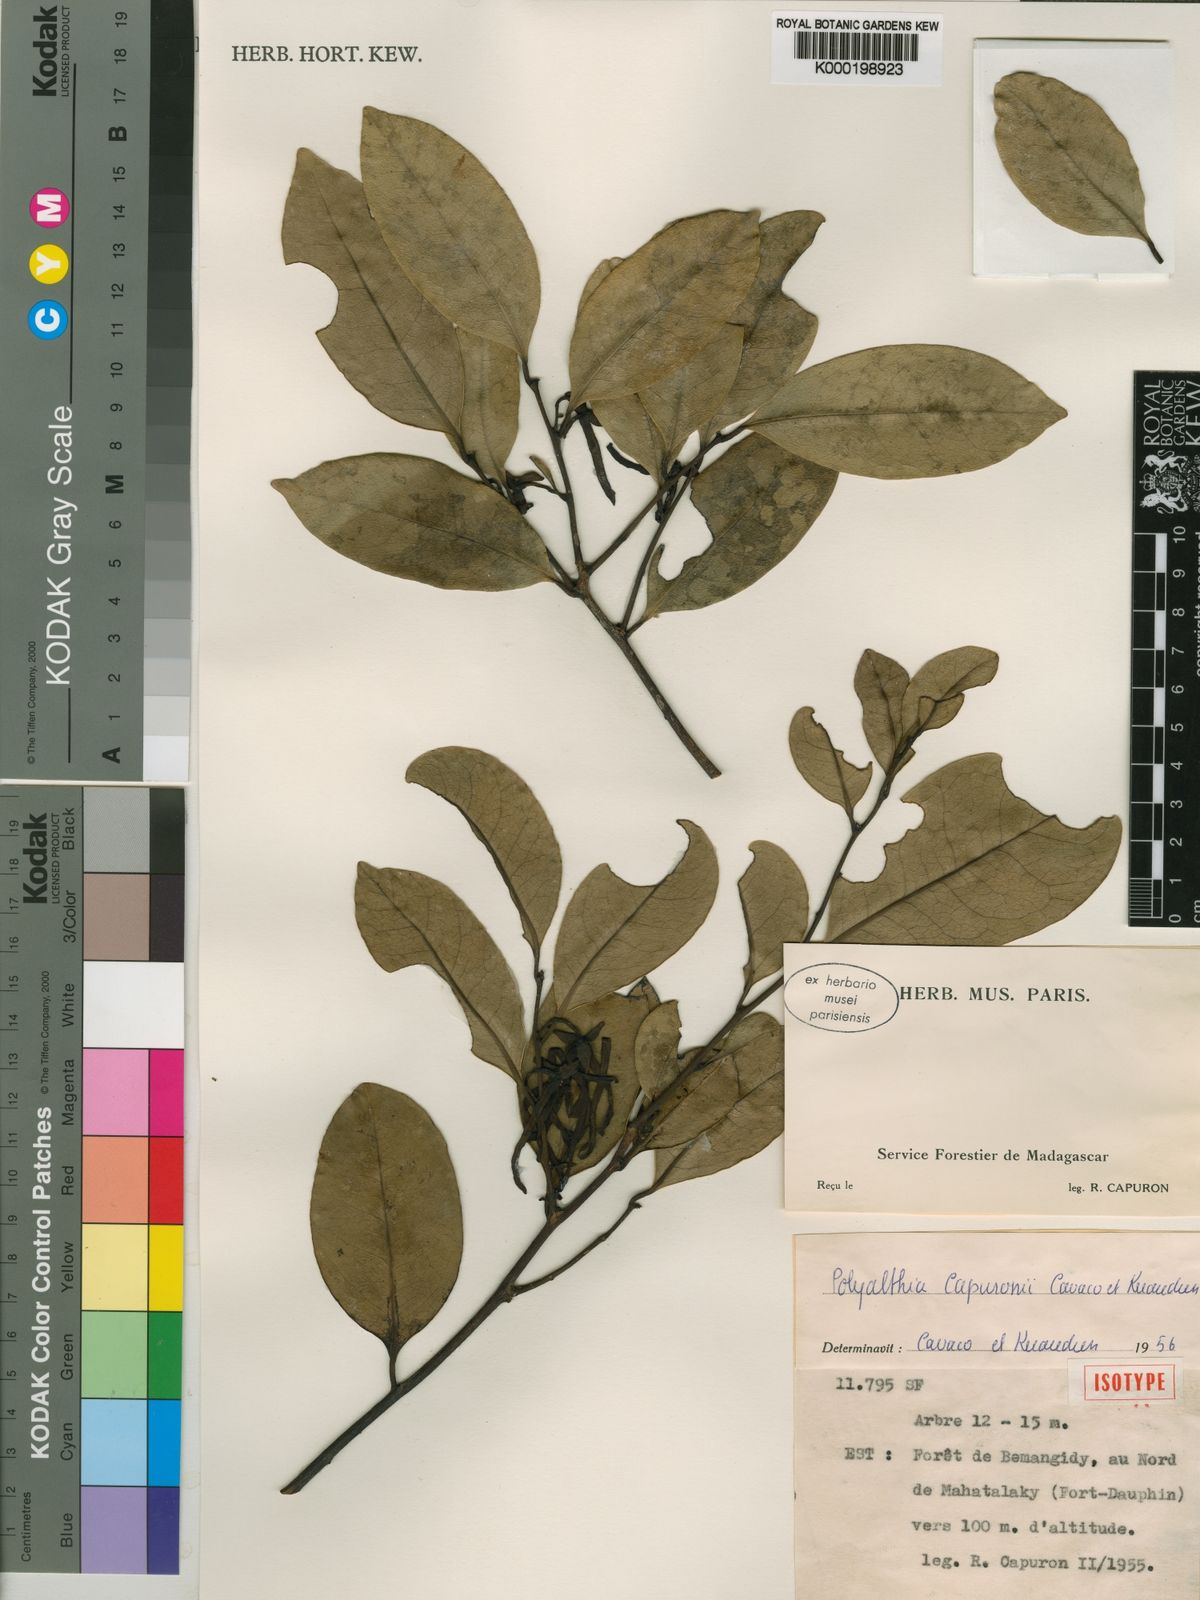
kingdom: Plantae
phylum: Tracheophyta
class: Magnoliopsida
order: Magnoliales
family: Annonaceae
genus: Fenerivia
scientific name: Fenerivia capuronii
